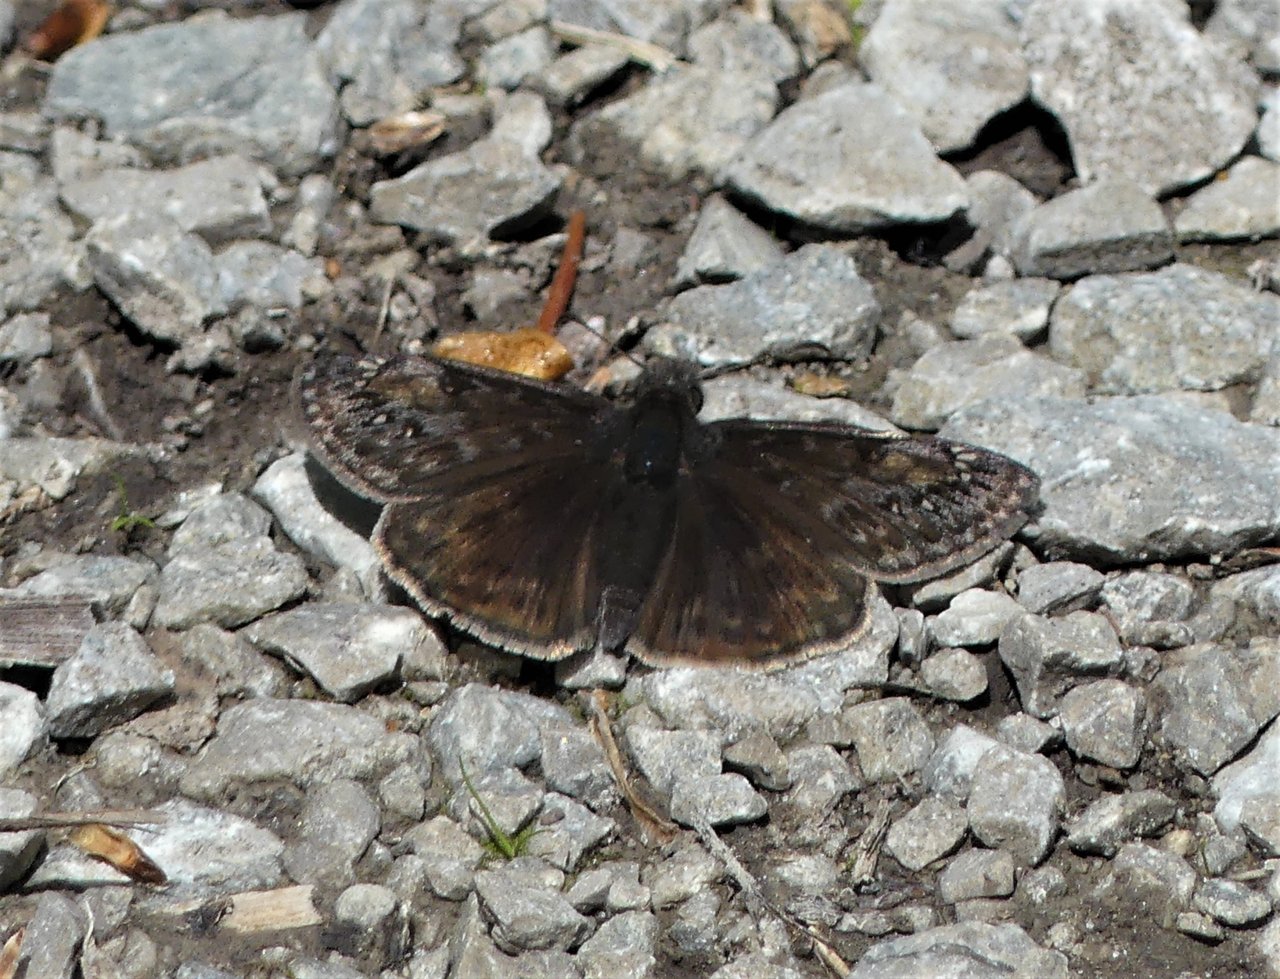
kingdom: Animalia
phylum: Arthropoda
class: Insecta
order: Lepidoptera
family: Hesperiidae
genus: Gesta
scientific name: Gesta
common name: Juvenal's Duskywing
